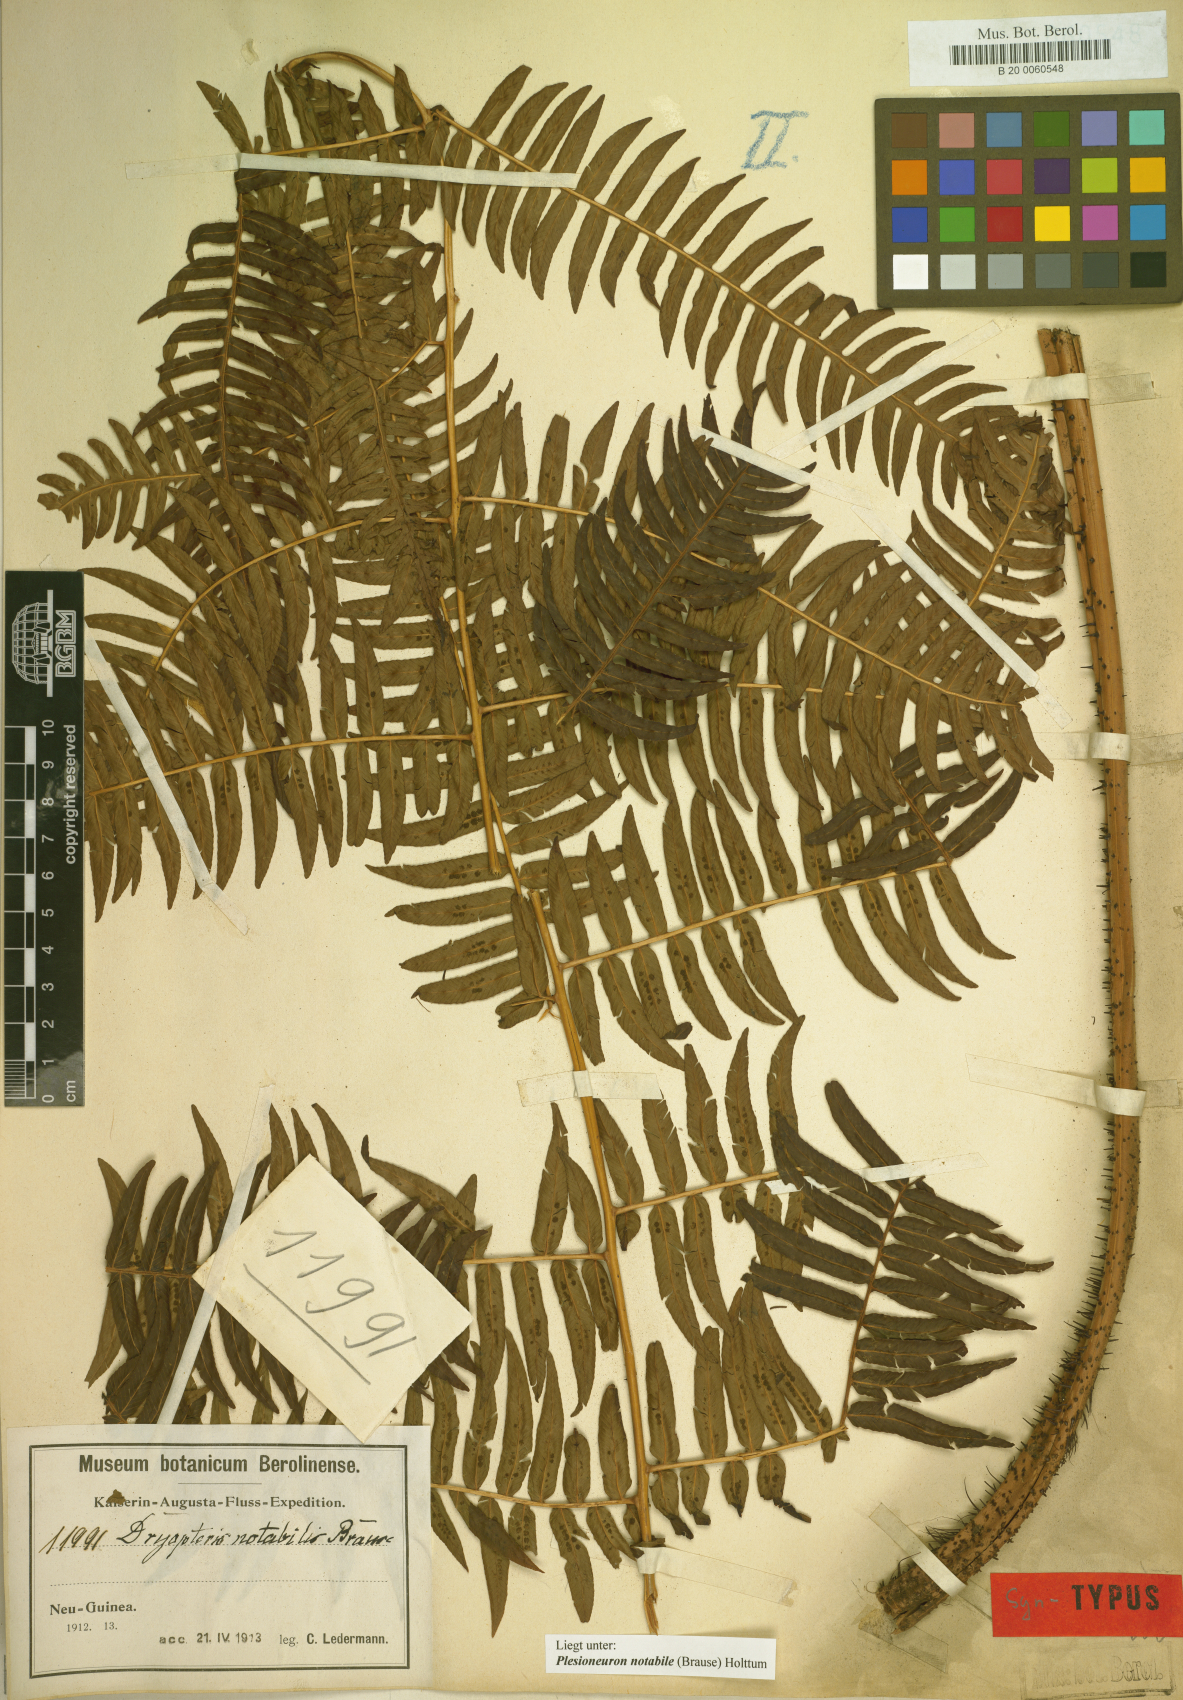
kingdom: Plantae
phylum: Tracheophyta
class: Polypodiopsida
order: Polypodiales
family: Thelypteridaceae
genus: Plesioneuron
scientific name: Plesioneuron notabile
